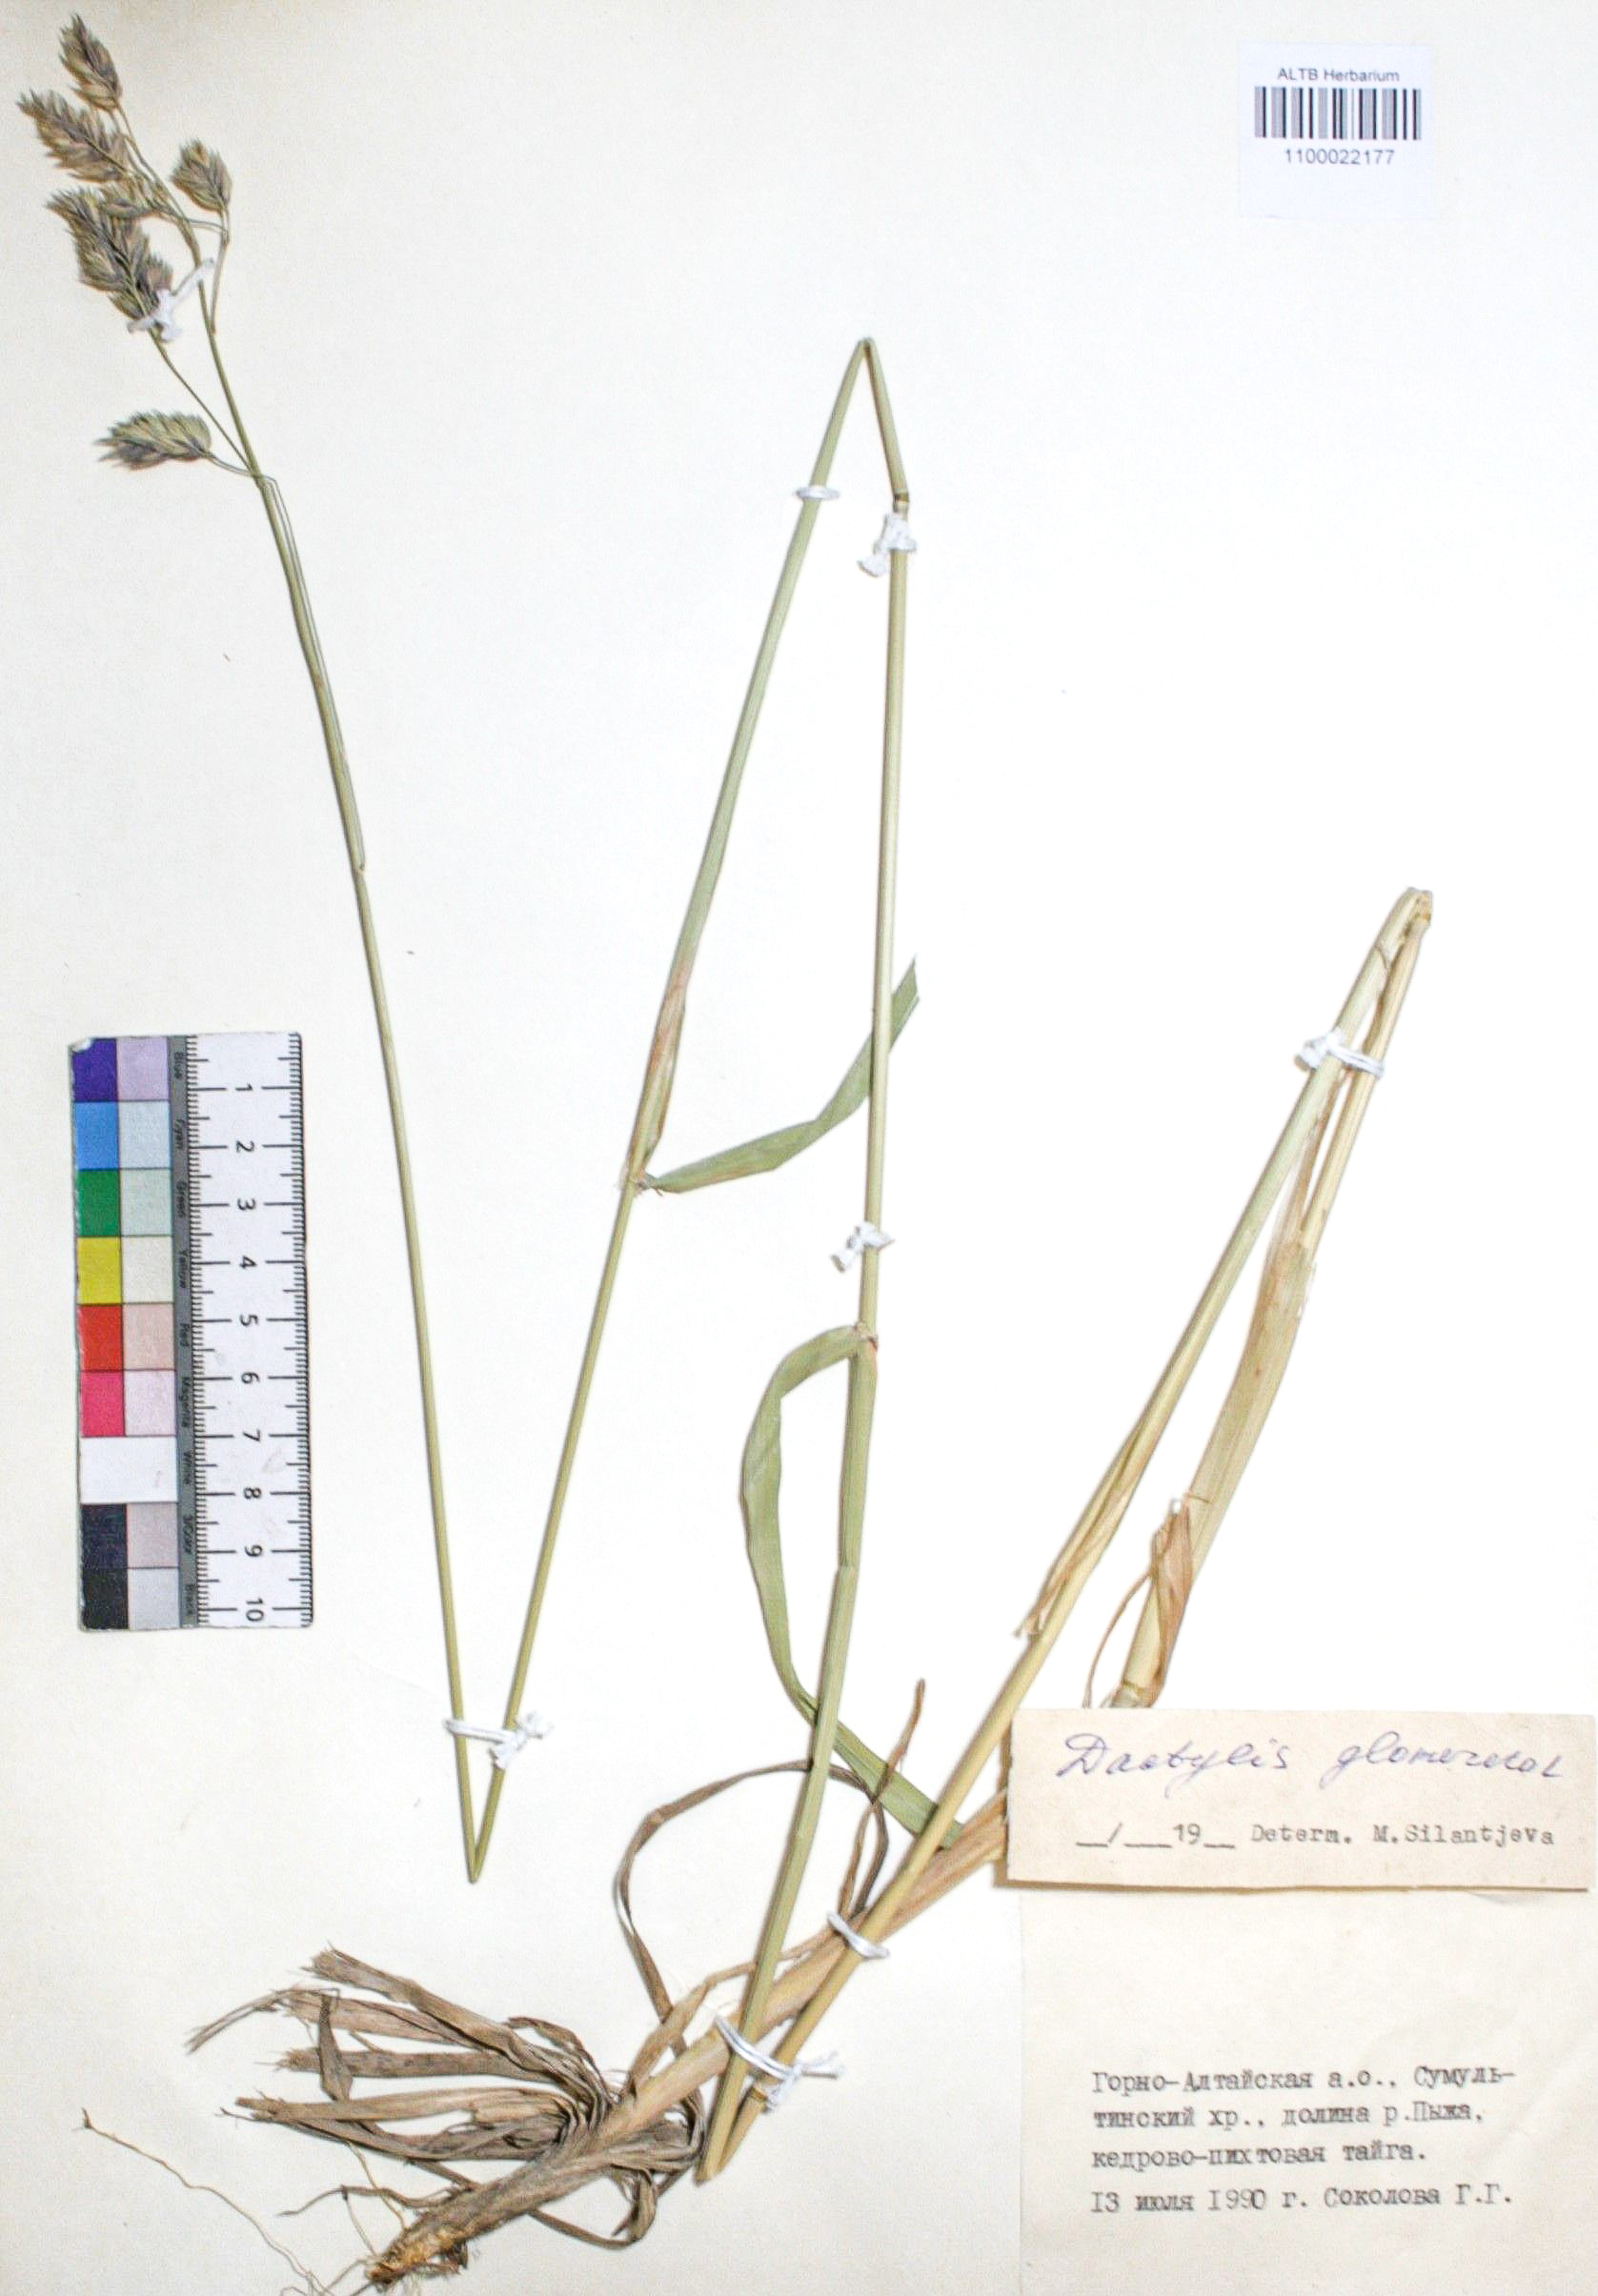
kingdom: Plantae
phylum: Tracheophyta
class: Liliopsida
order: Poales
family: Poaceae
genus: Dactylis
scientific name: Dactylis glomerata
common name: Orchardgrass
